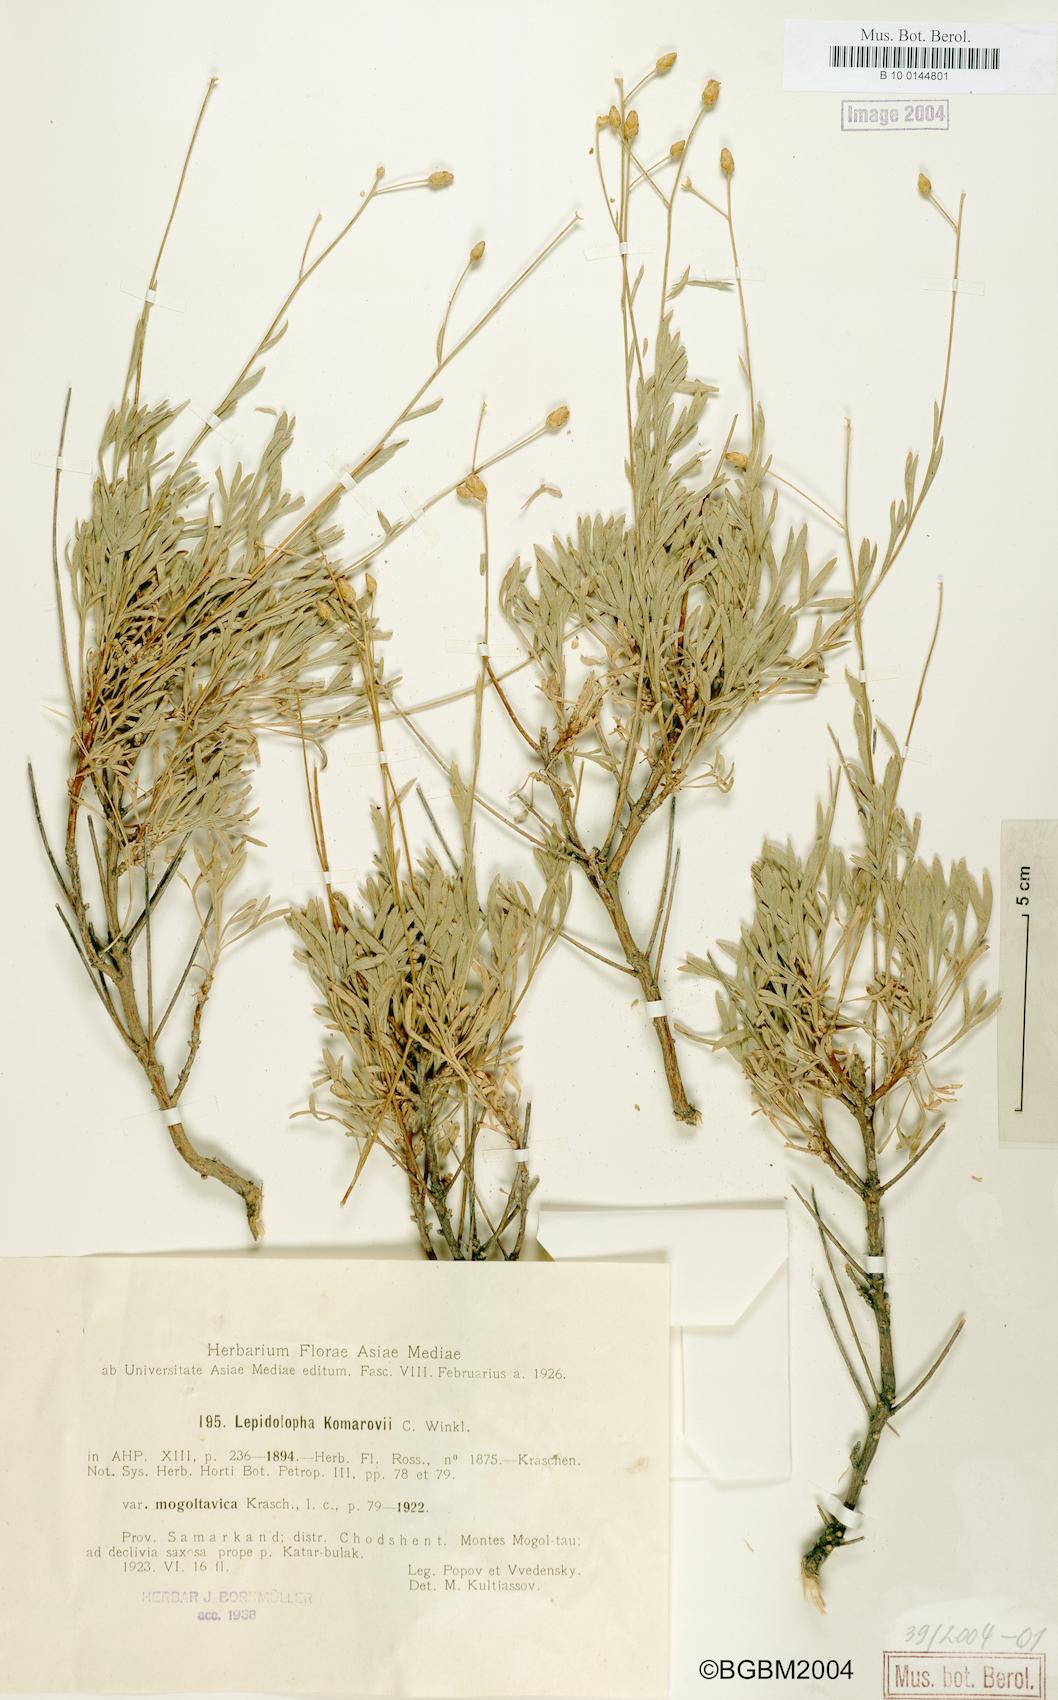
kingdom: Plantae
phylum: Tracheophyta
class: Magnoliopsida
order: Asterales
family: Asteraceae
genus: Lepidolopha
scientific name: Lepidolopha komarowii
